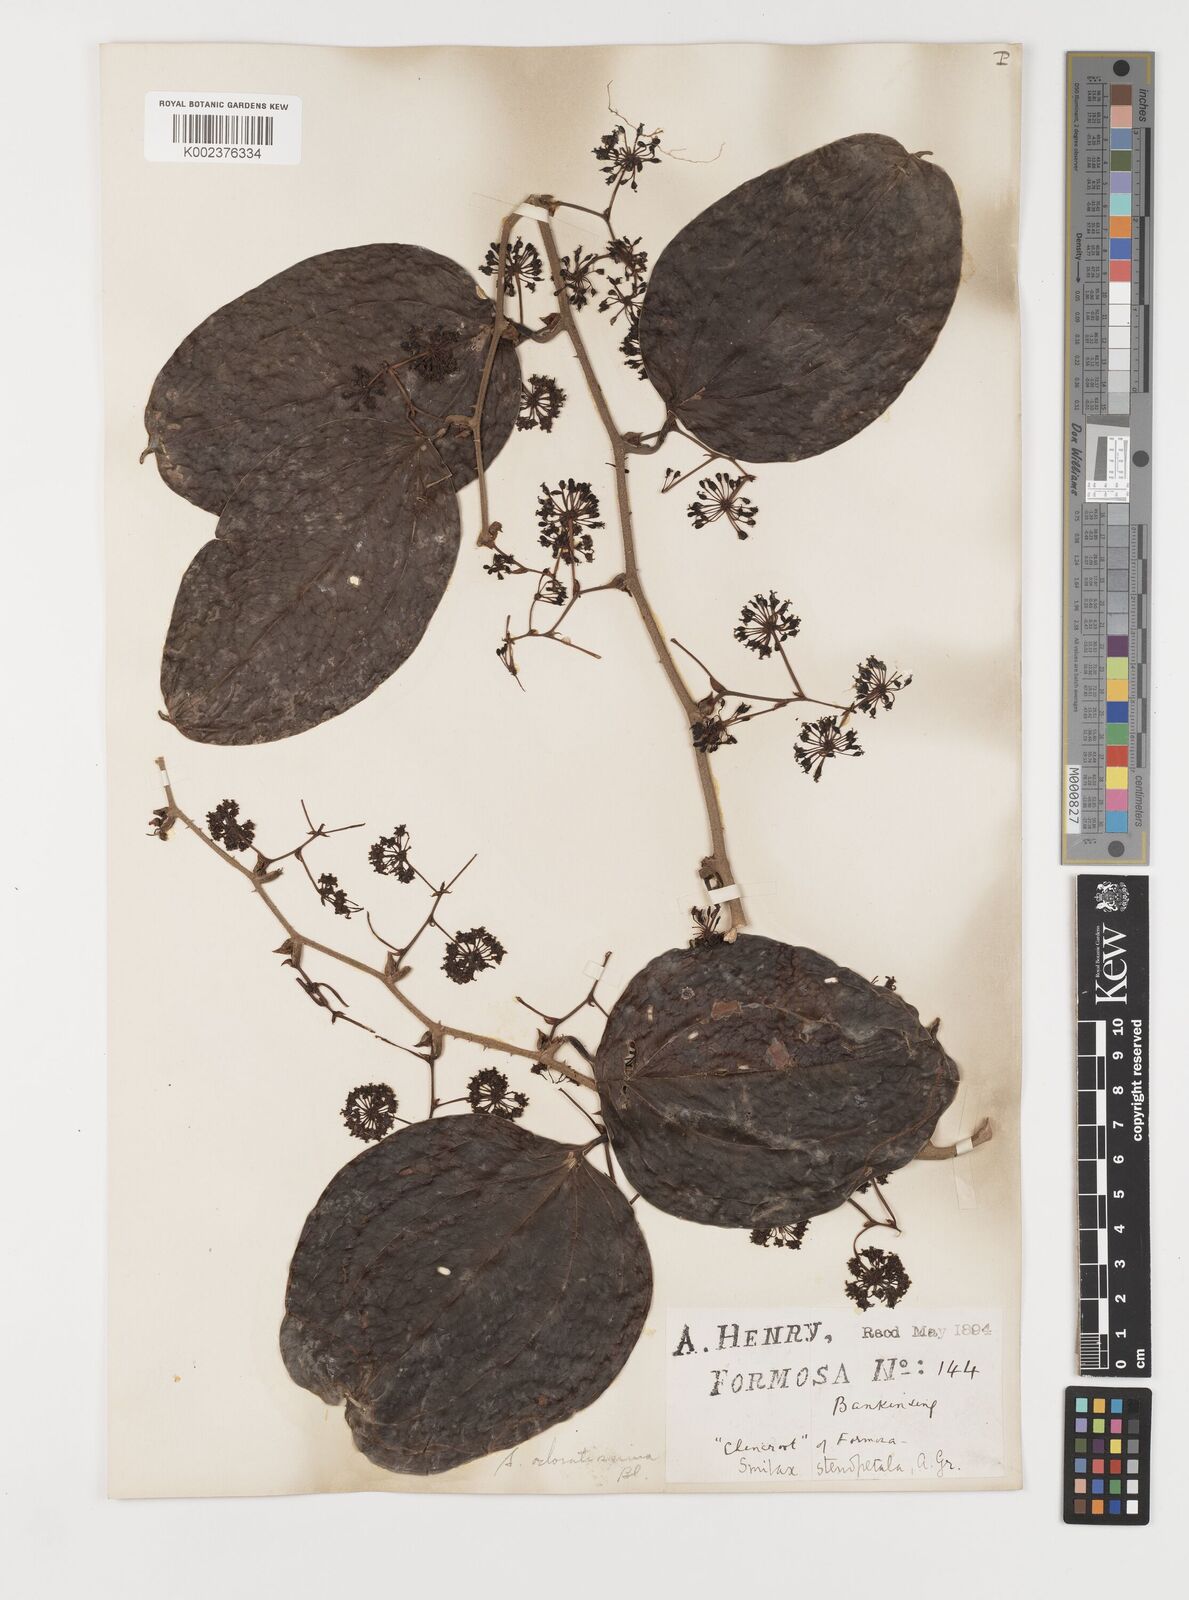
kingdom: Plantae
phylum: Tracheophyta
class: Liliopsida
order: Liliales
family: Smilacaceae
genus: Smilax
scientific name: Smilax odoratissima
